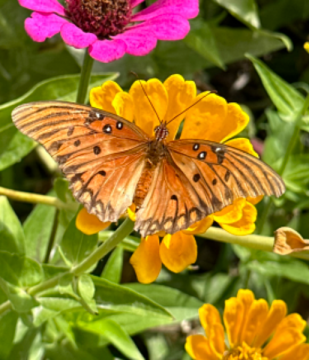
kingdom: Animalia
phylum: Arthropoda
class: Insecta
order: Lepidoptera
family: Nymphalidae
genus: Dione
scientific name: Dione vanillae
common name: Gulf Fritillary
